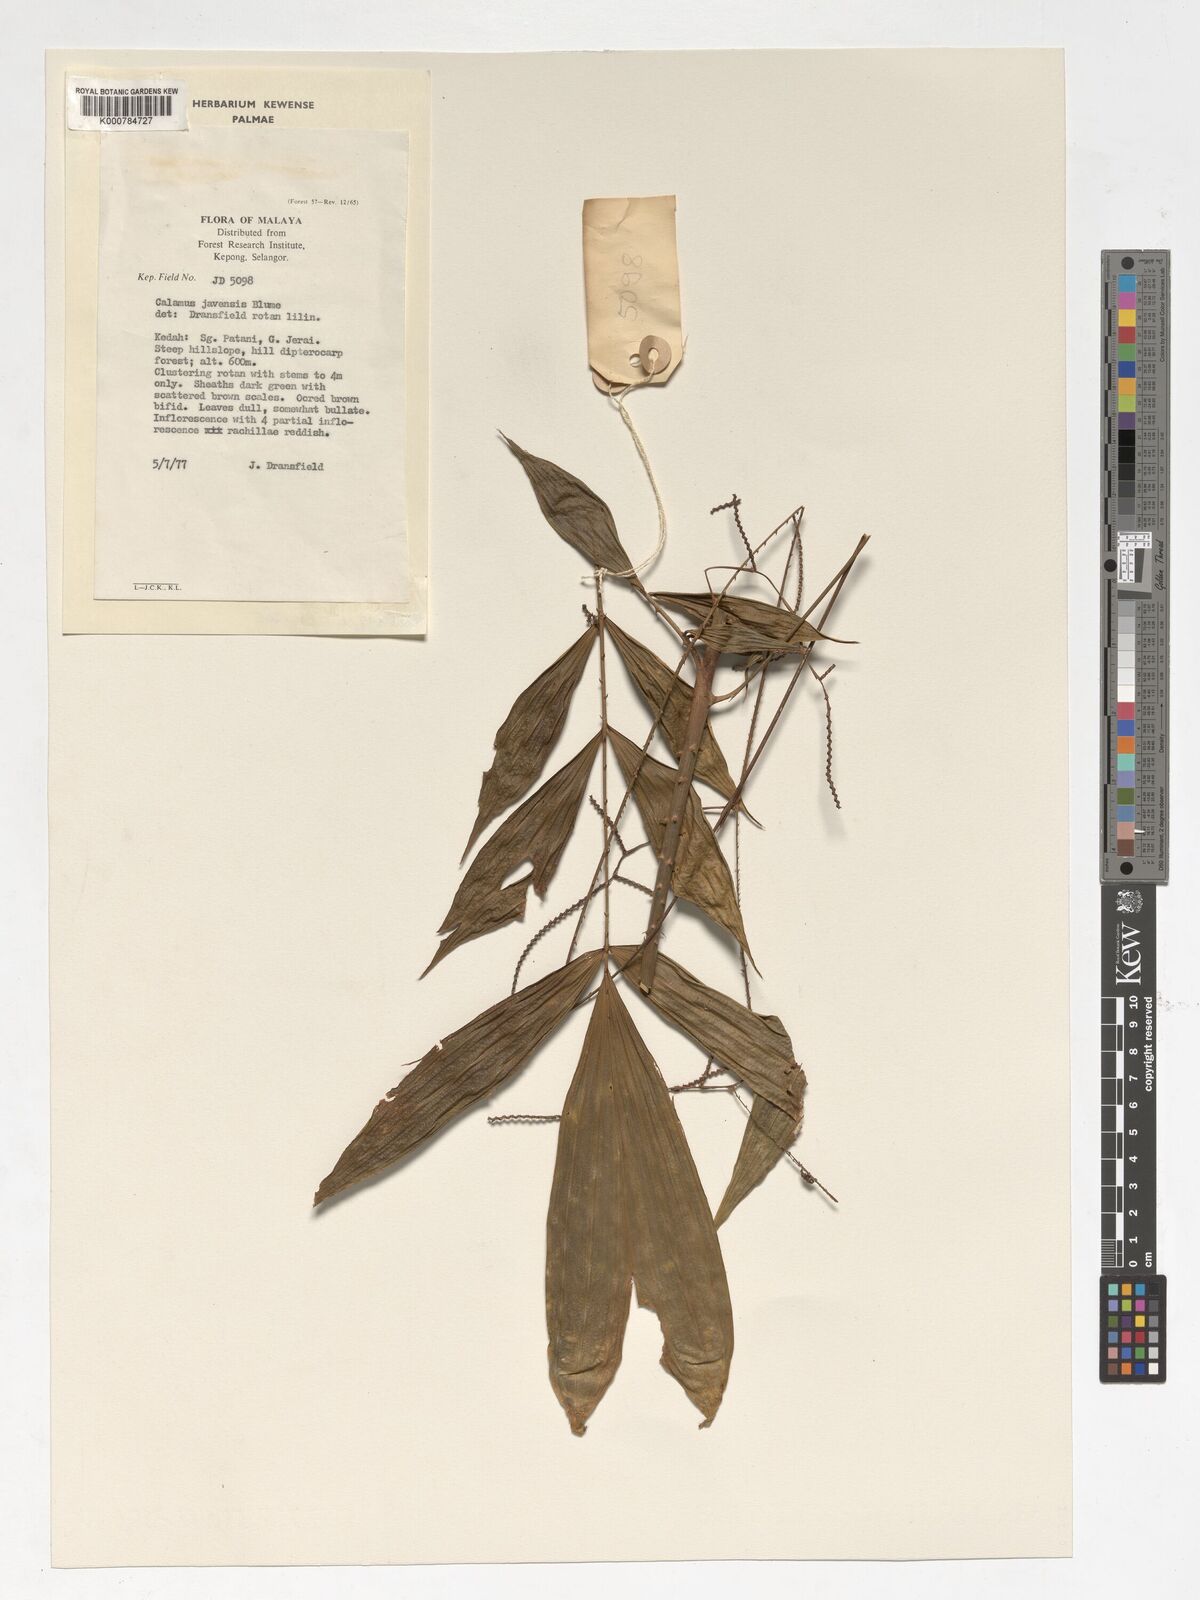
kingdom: Plantae
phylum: Tracheophyta
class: Liliopsida
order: Arecales
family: Arecaceae
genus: Calamus
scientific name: Calamus javensis
